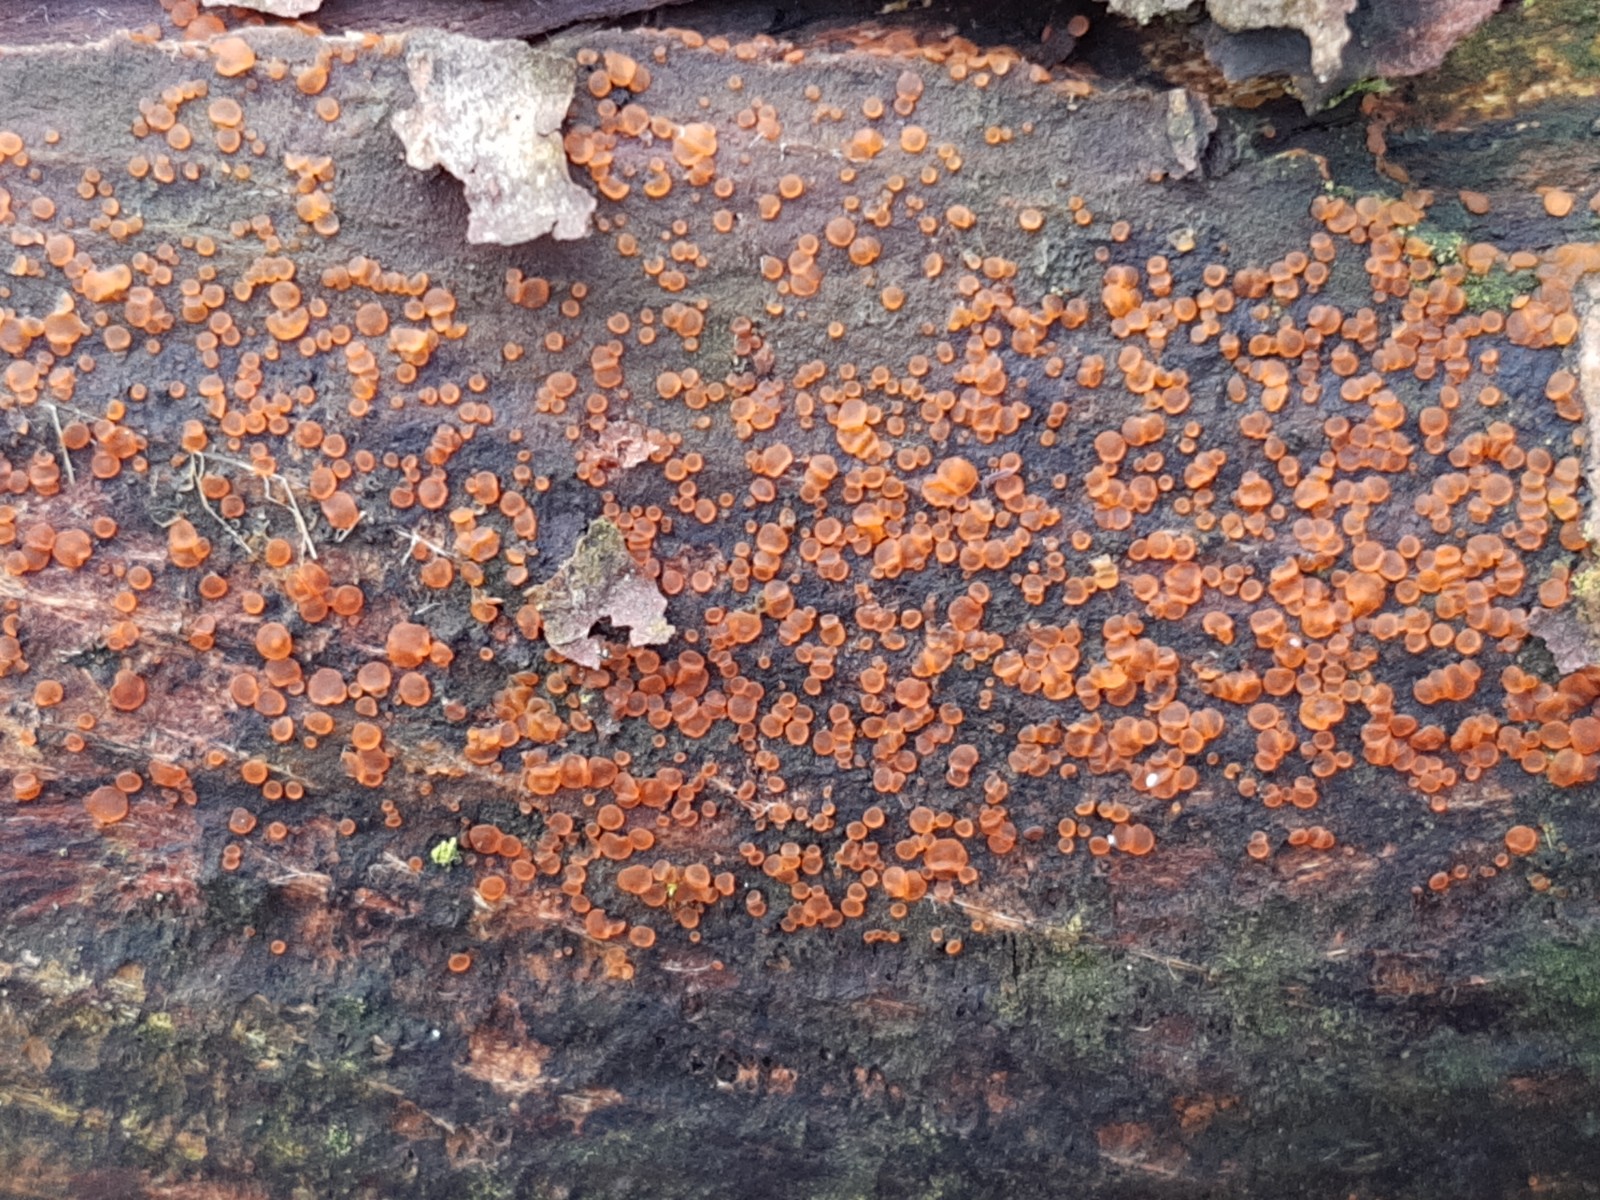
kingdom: Fungi
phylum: Ascomycota
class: Orbiliomycetes
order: Orbiliales
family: Orbiliaceae
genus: Orbilia
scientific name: Orbilia xanthostigma
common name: krumsporet voksskive
